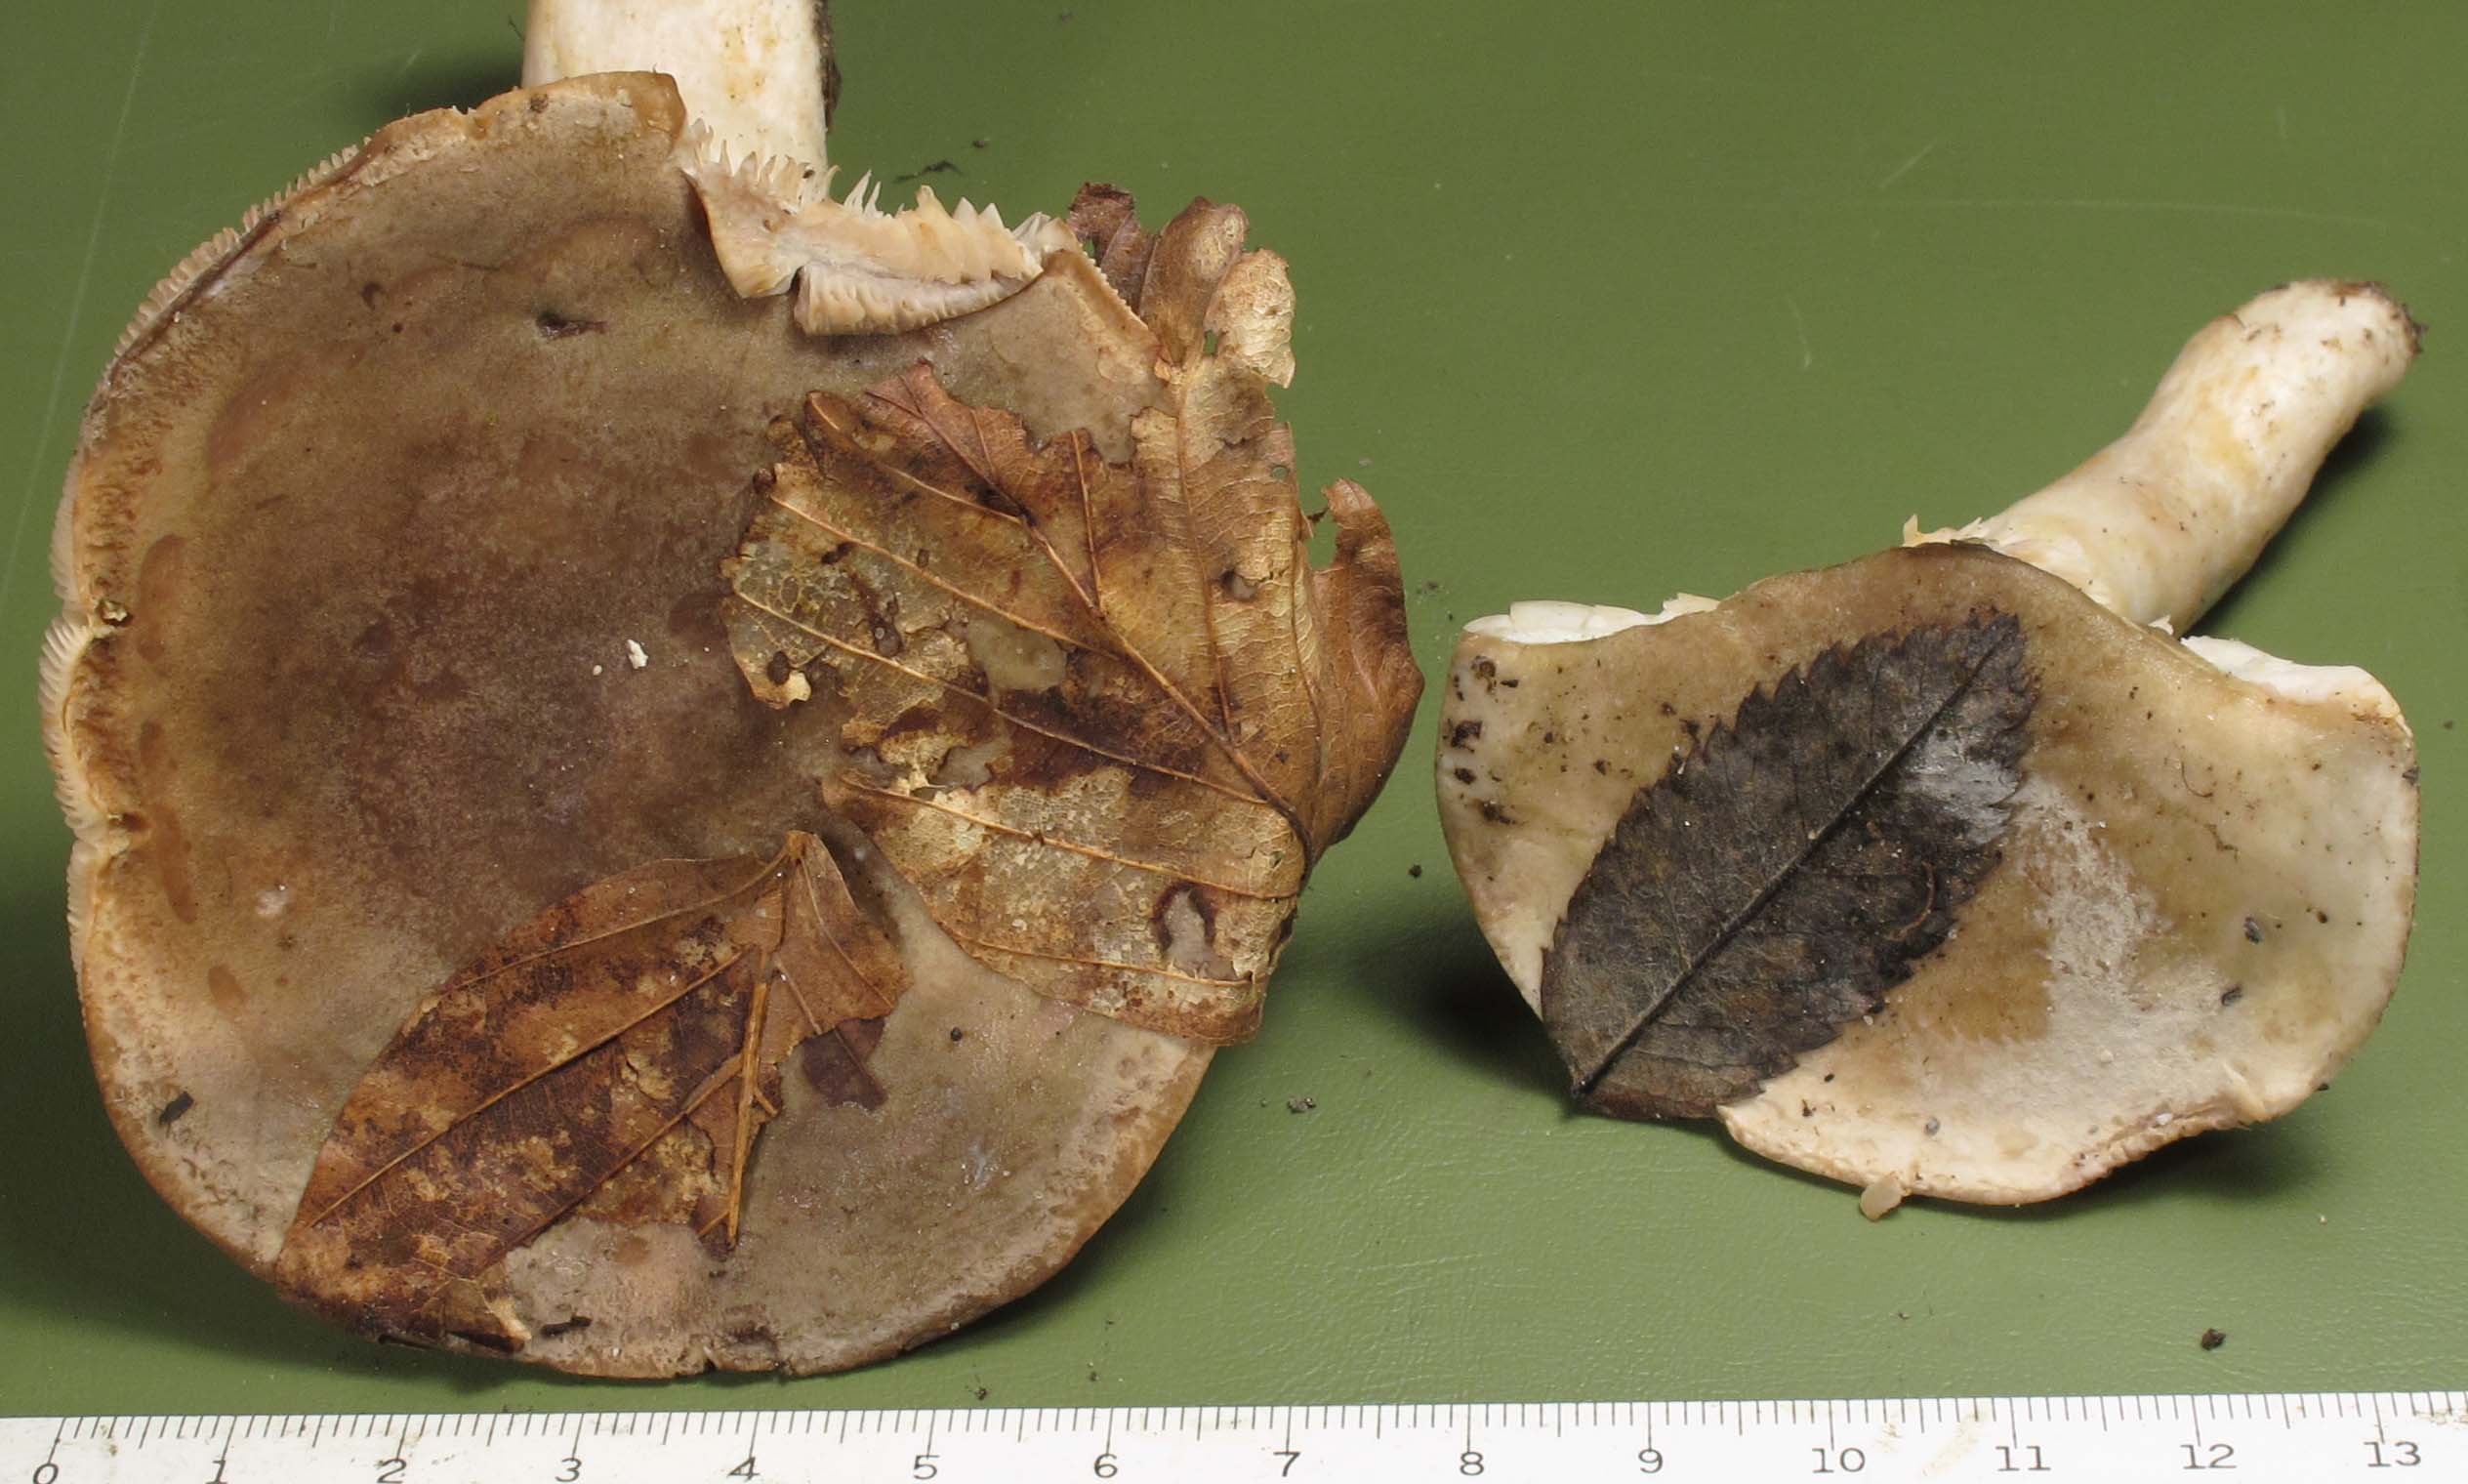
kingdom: Fungi
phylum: Basidiomycota
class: Agaricomycetes
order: Russulales
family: Russulaceae
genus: Lactarius
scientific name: Lactarius fluens
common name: lysrandet mælkehat
